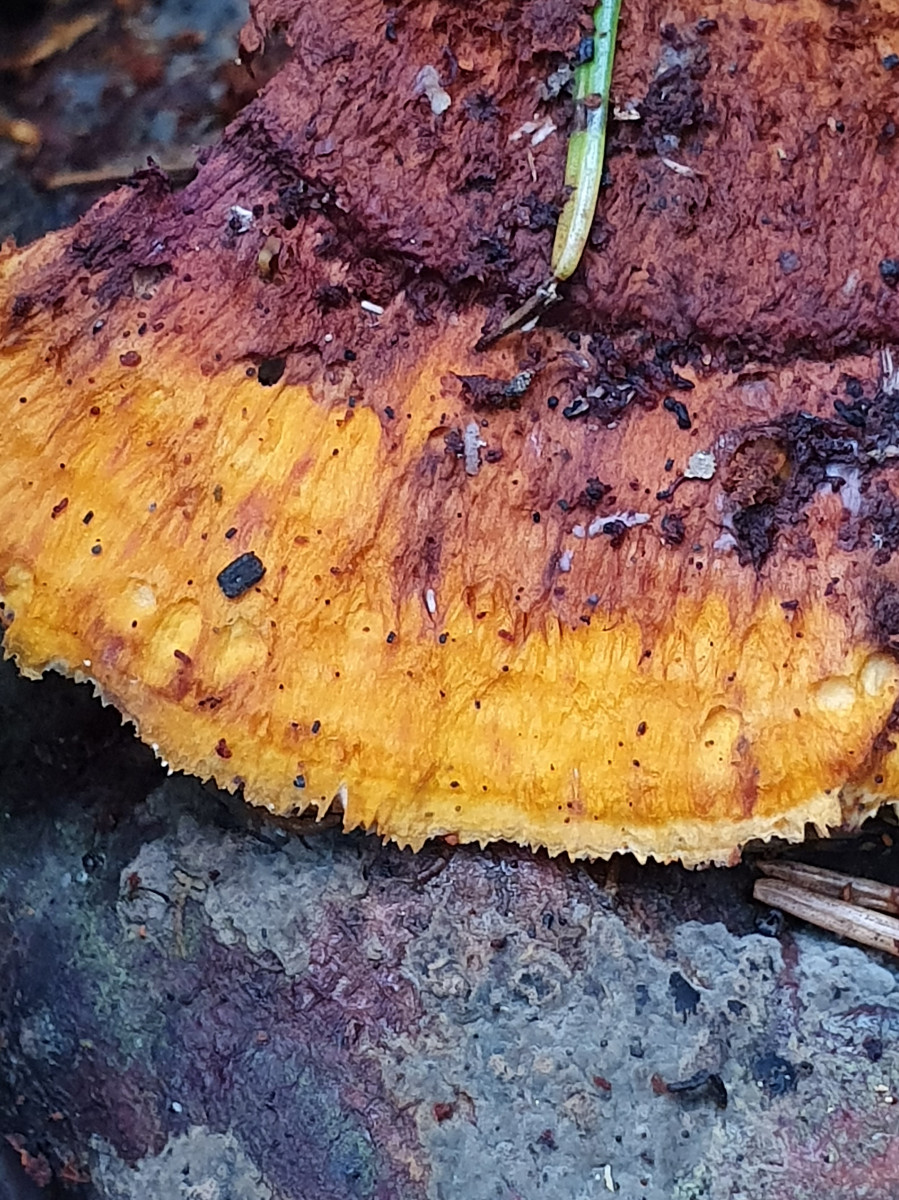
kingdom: Fungi
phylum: Basidiomycota
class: Agaricomycetes
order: Polyporales
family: Pycnoporellaceae
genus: Pycnoporellus
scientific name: Pycnoporellus fulgens
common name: flammeporesvamp
